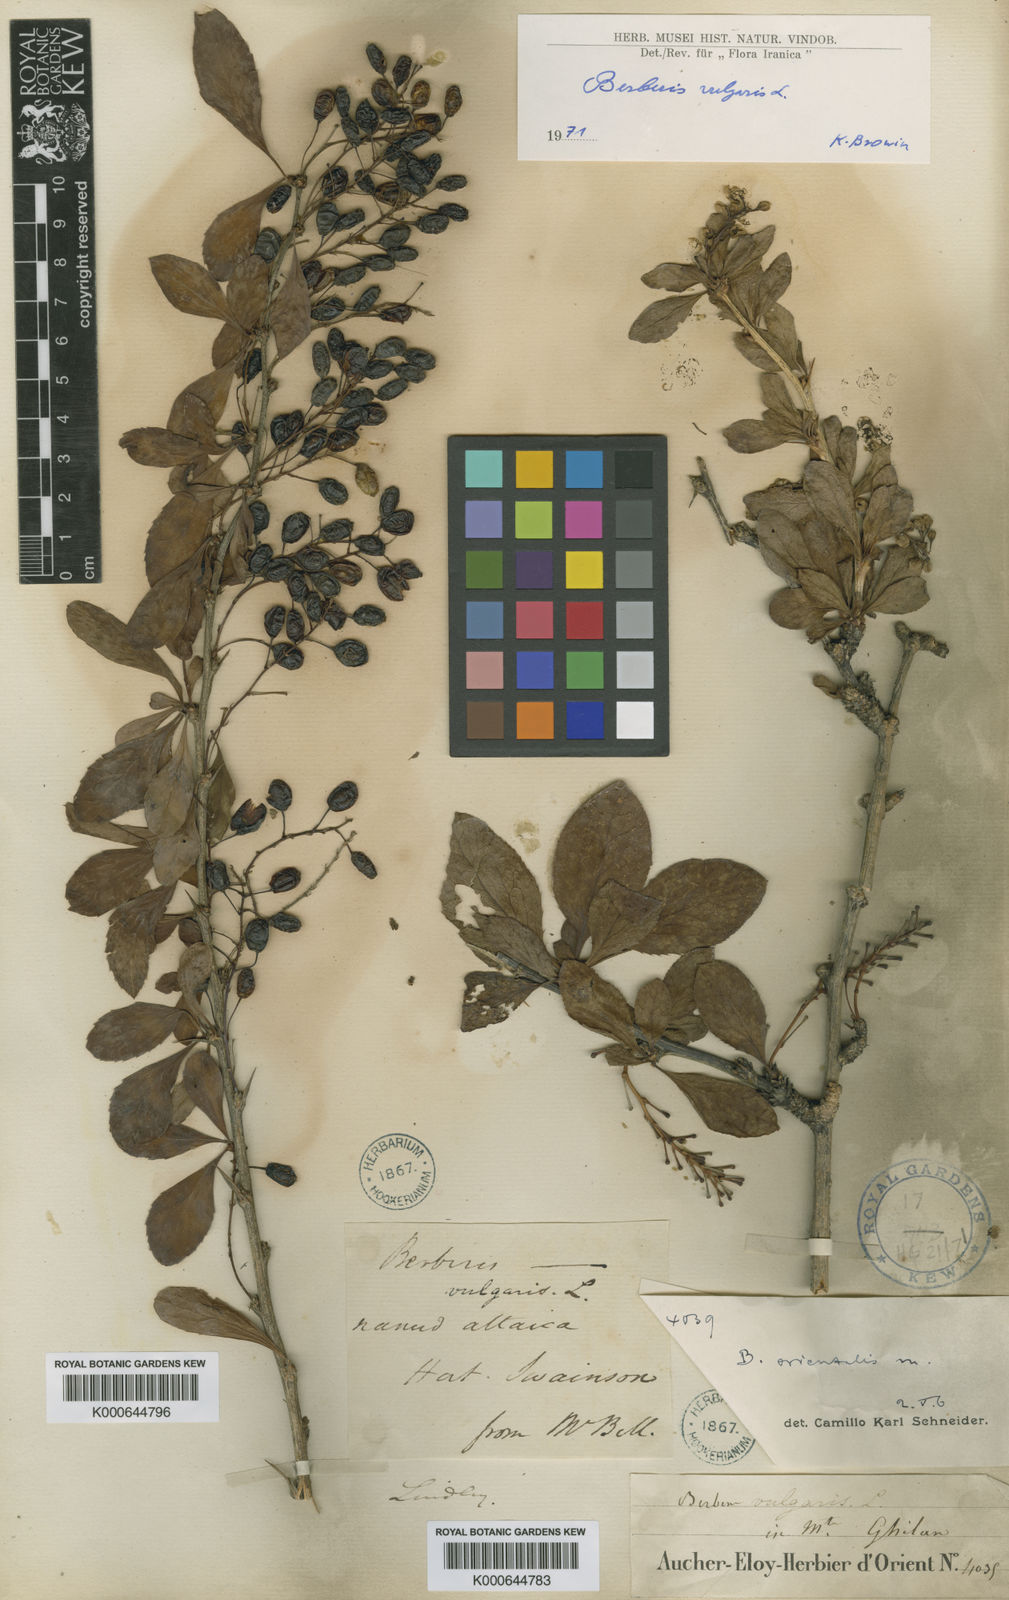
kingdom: Plantae
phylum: Tracheophyta
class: Magnoliopsida
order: Ranunculales
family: Berberidaceae
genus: Berberis
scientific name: Berberis vulgaris
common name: Barberry
